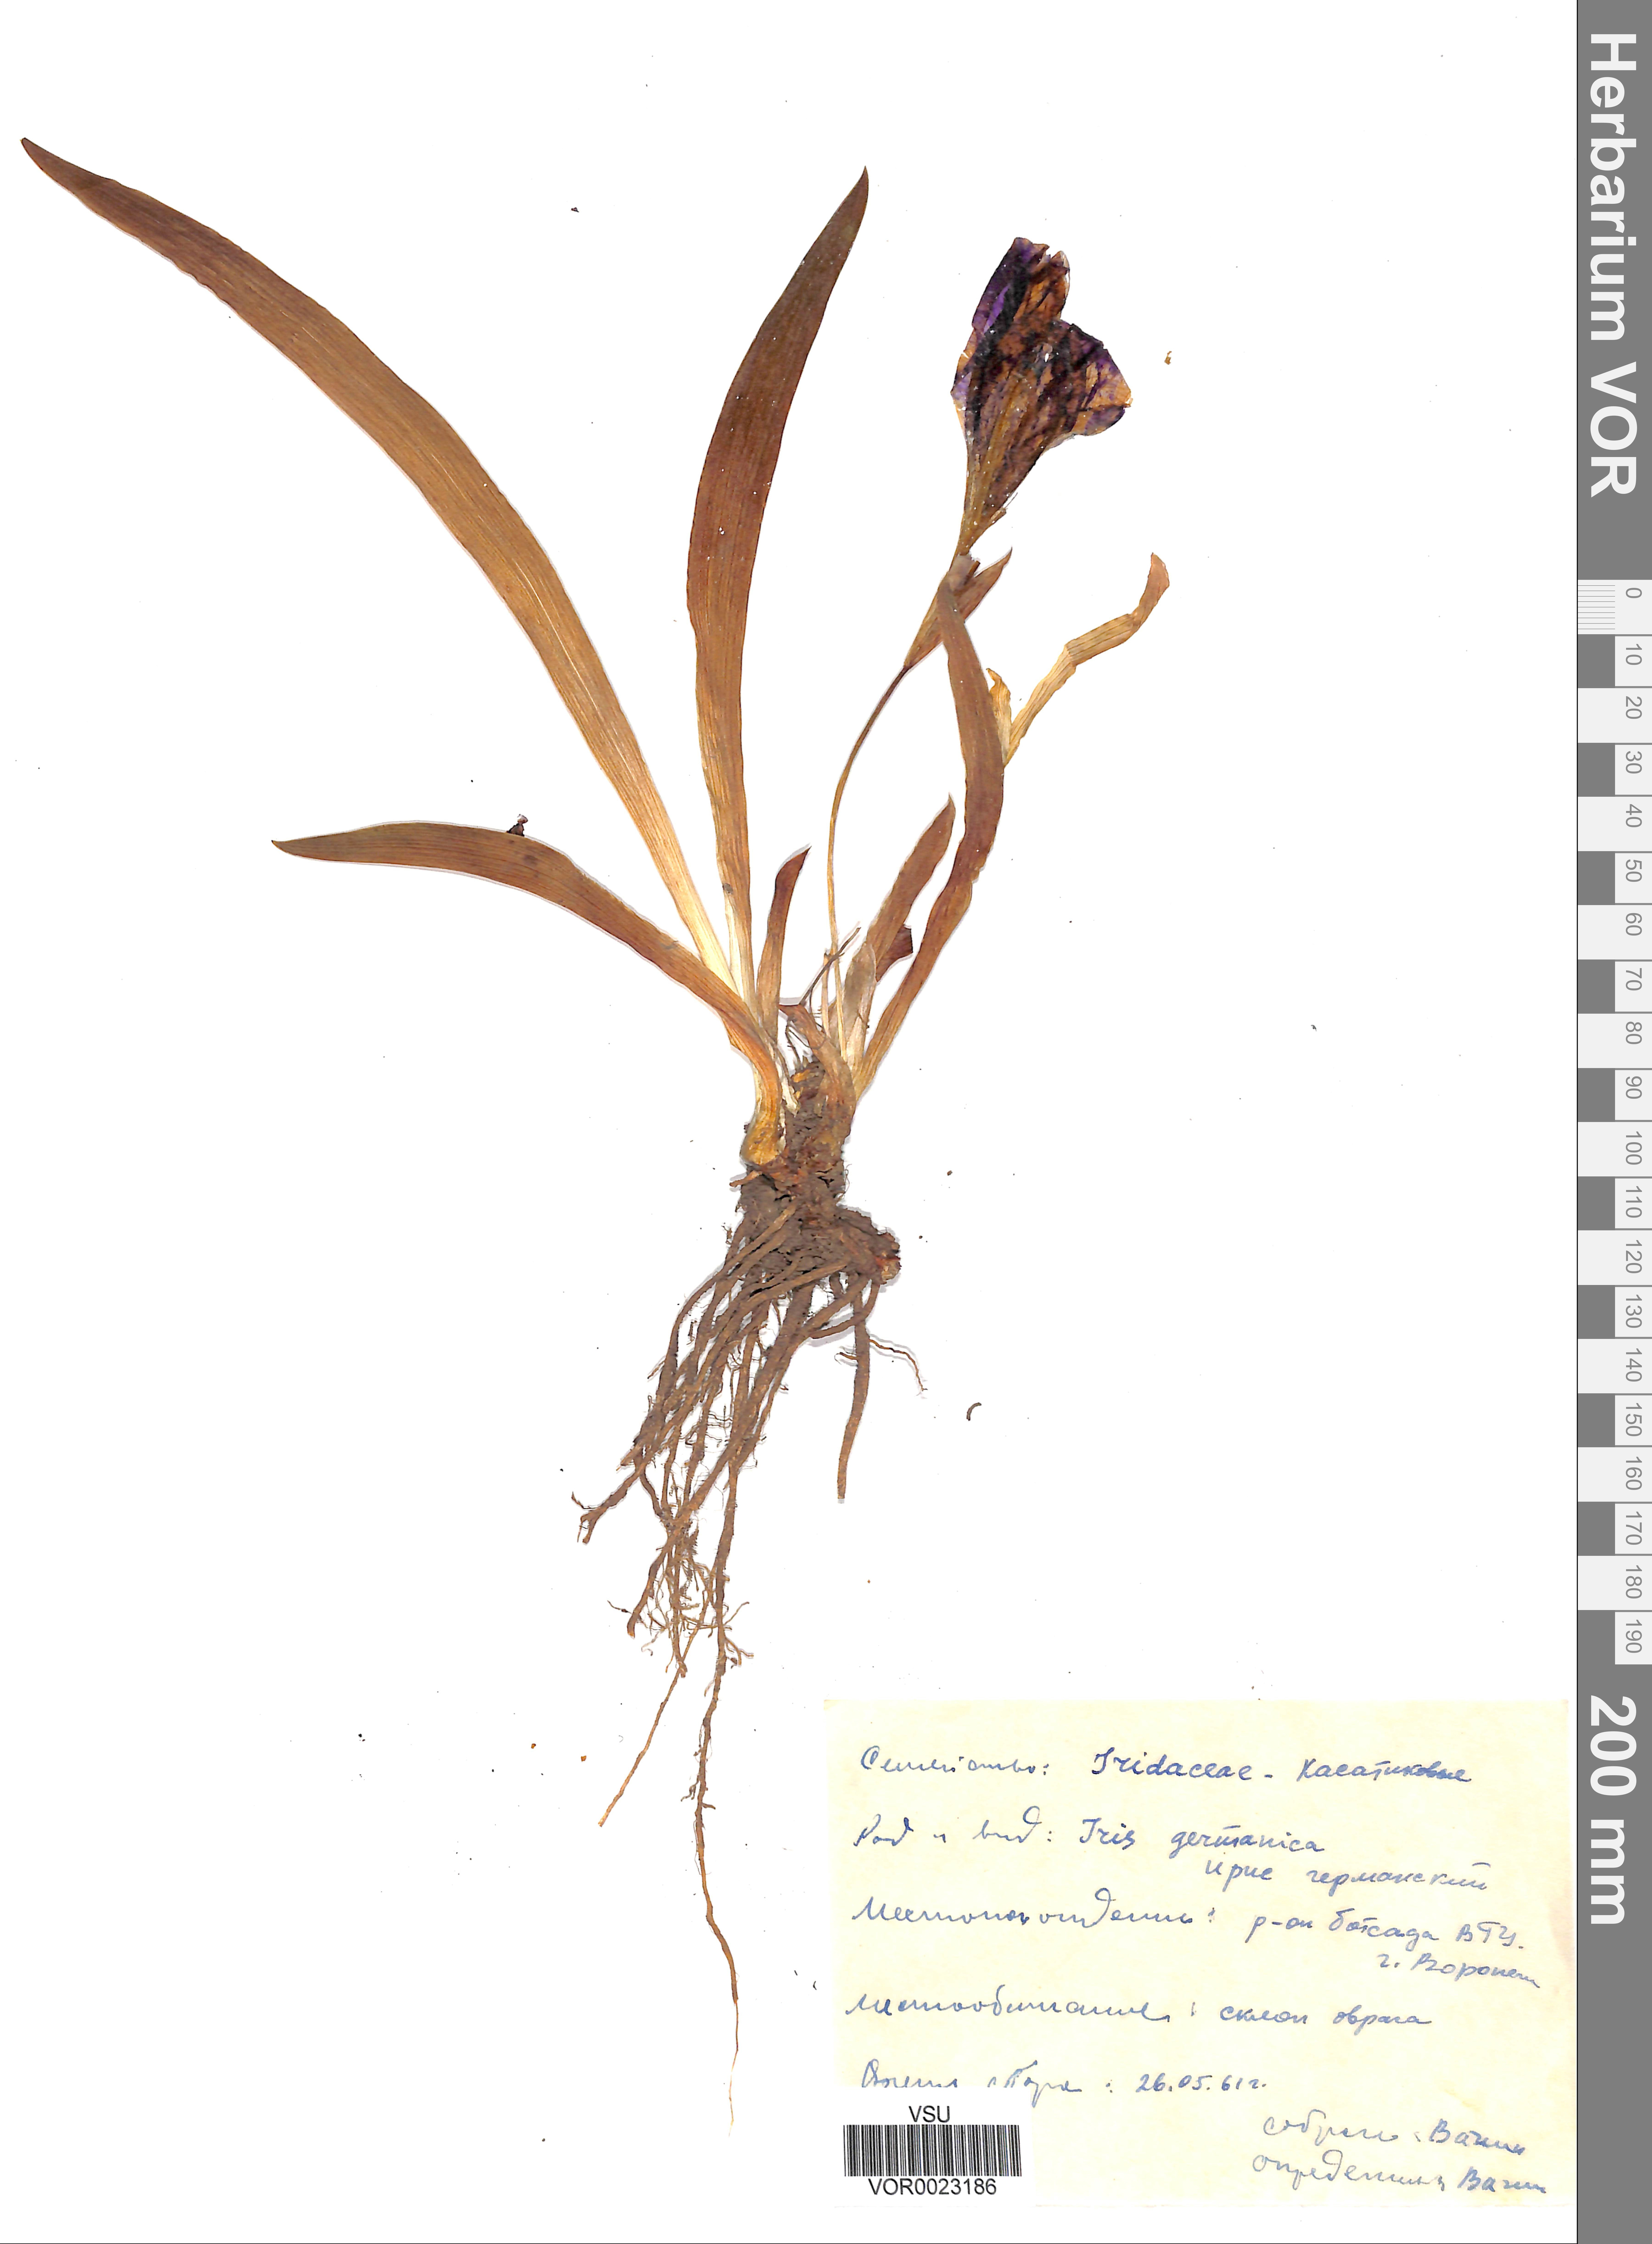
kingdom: Plantae
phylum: Tracheophyta
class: Liliopsida
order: Asparagales
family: Iridaceae
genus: Iris
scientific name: Iris aphylla
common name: Stool iris
